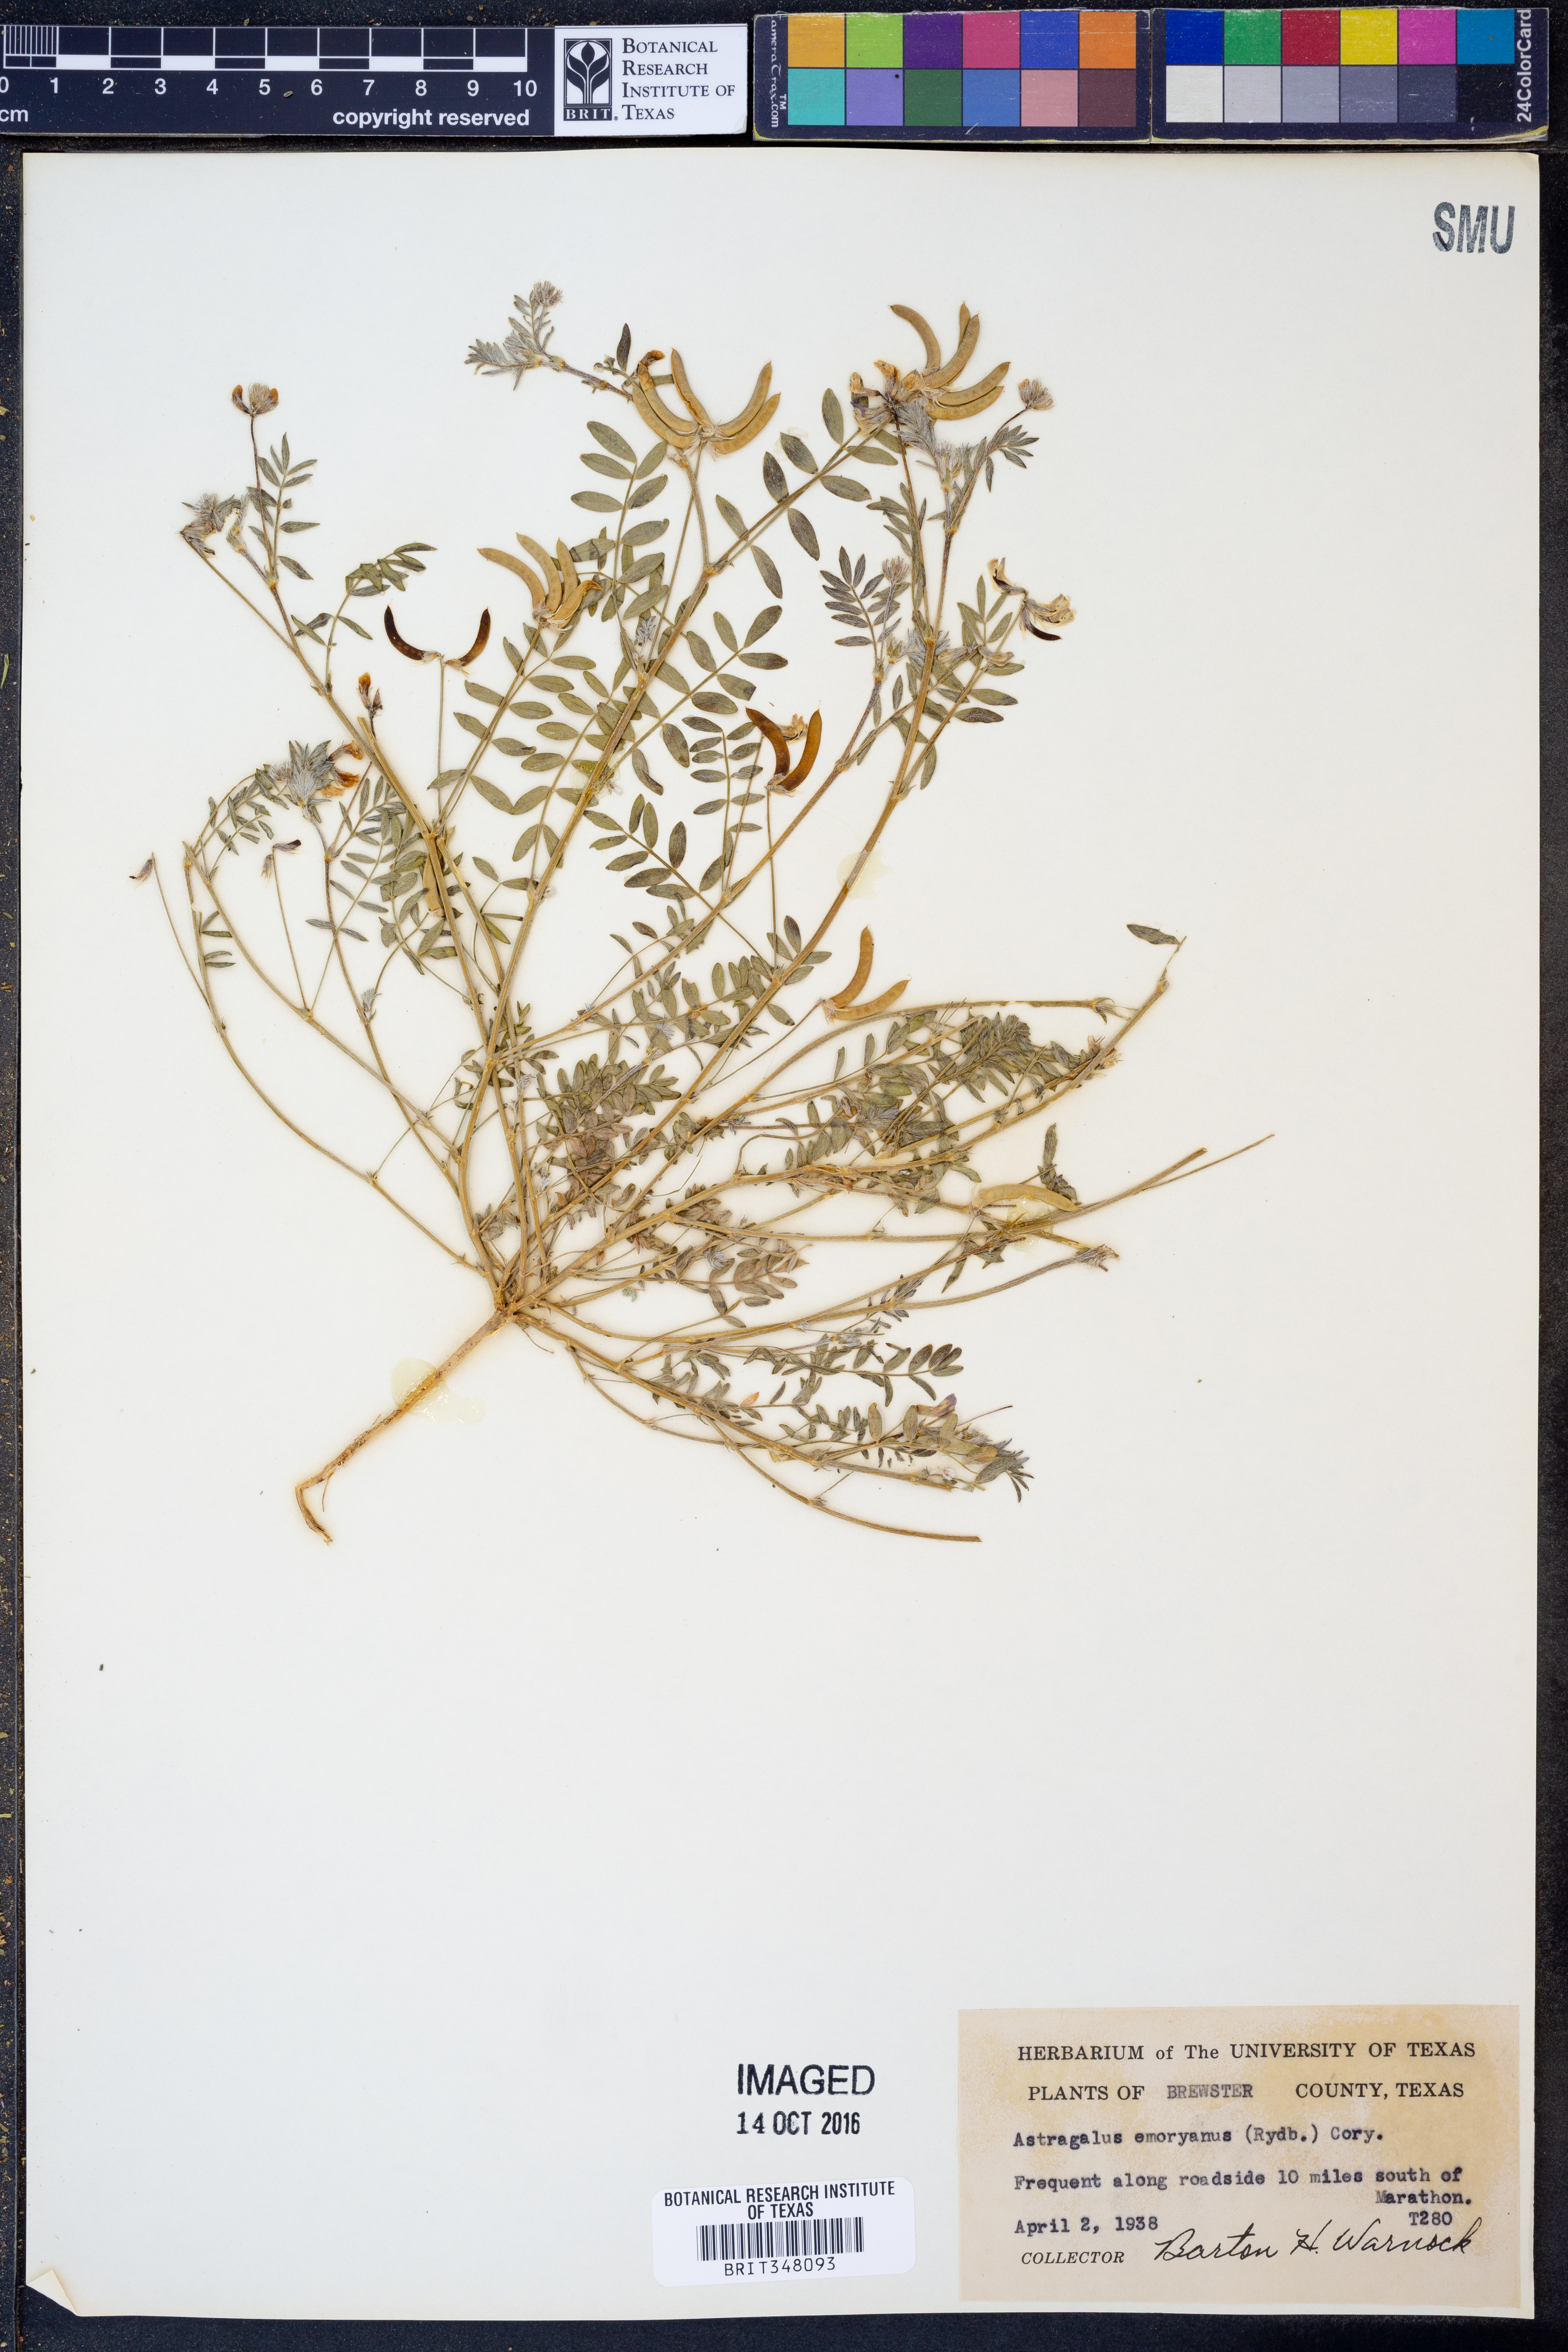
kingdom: Plantae
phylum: Tracheophyta
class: Magnoliopsida
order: Fabales
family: Fabaceae
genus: Astragalus
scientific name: Astragalus emoryanus
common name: Emory's milk-vetch
